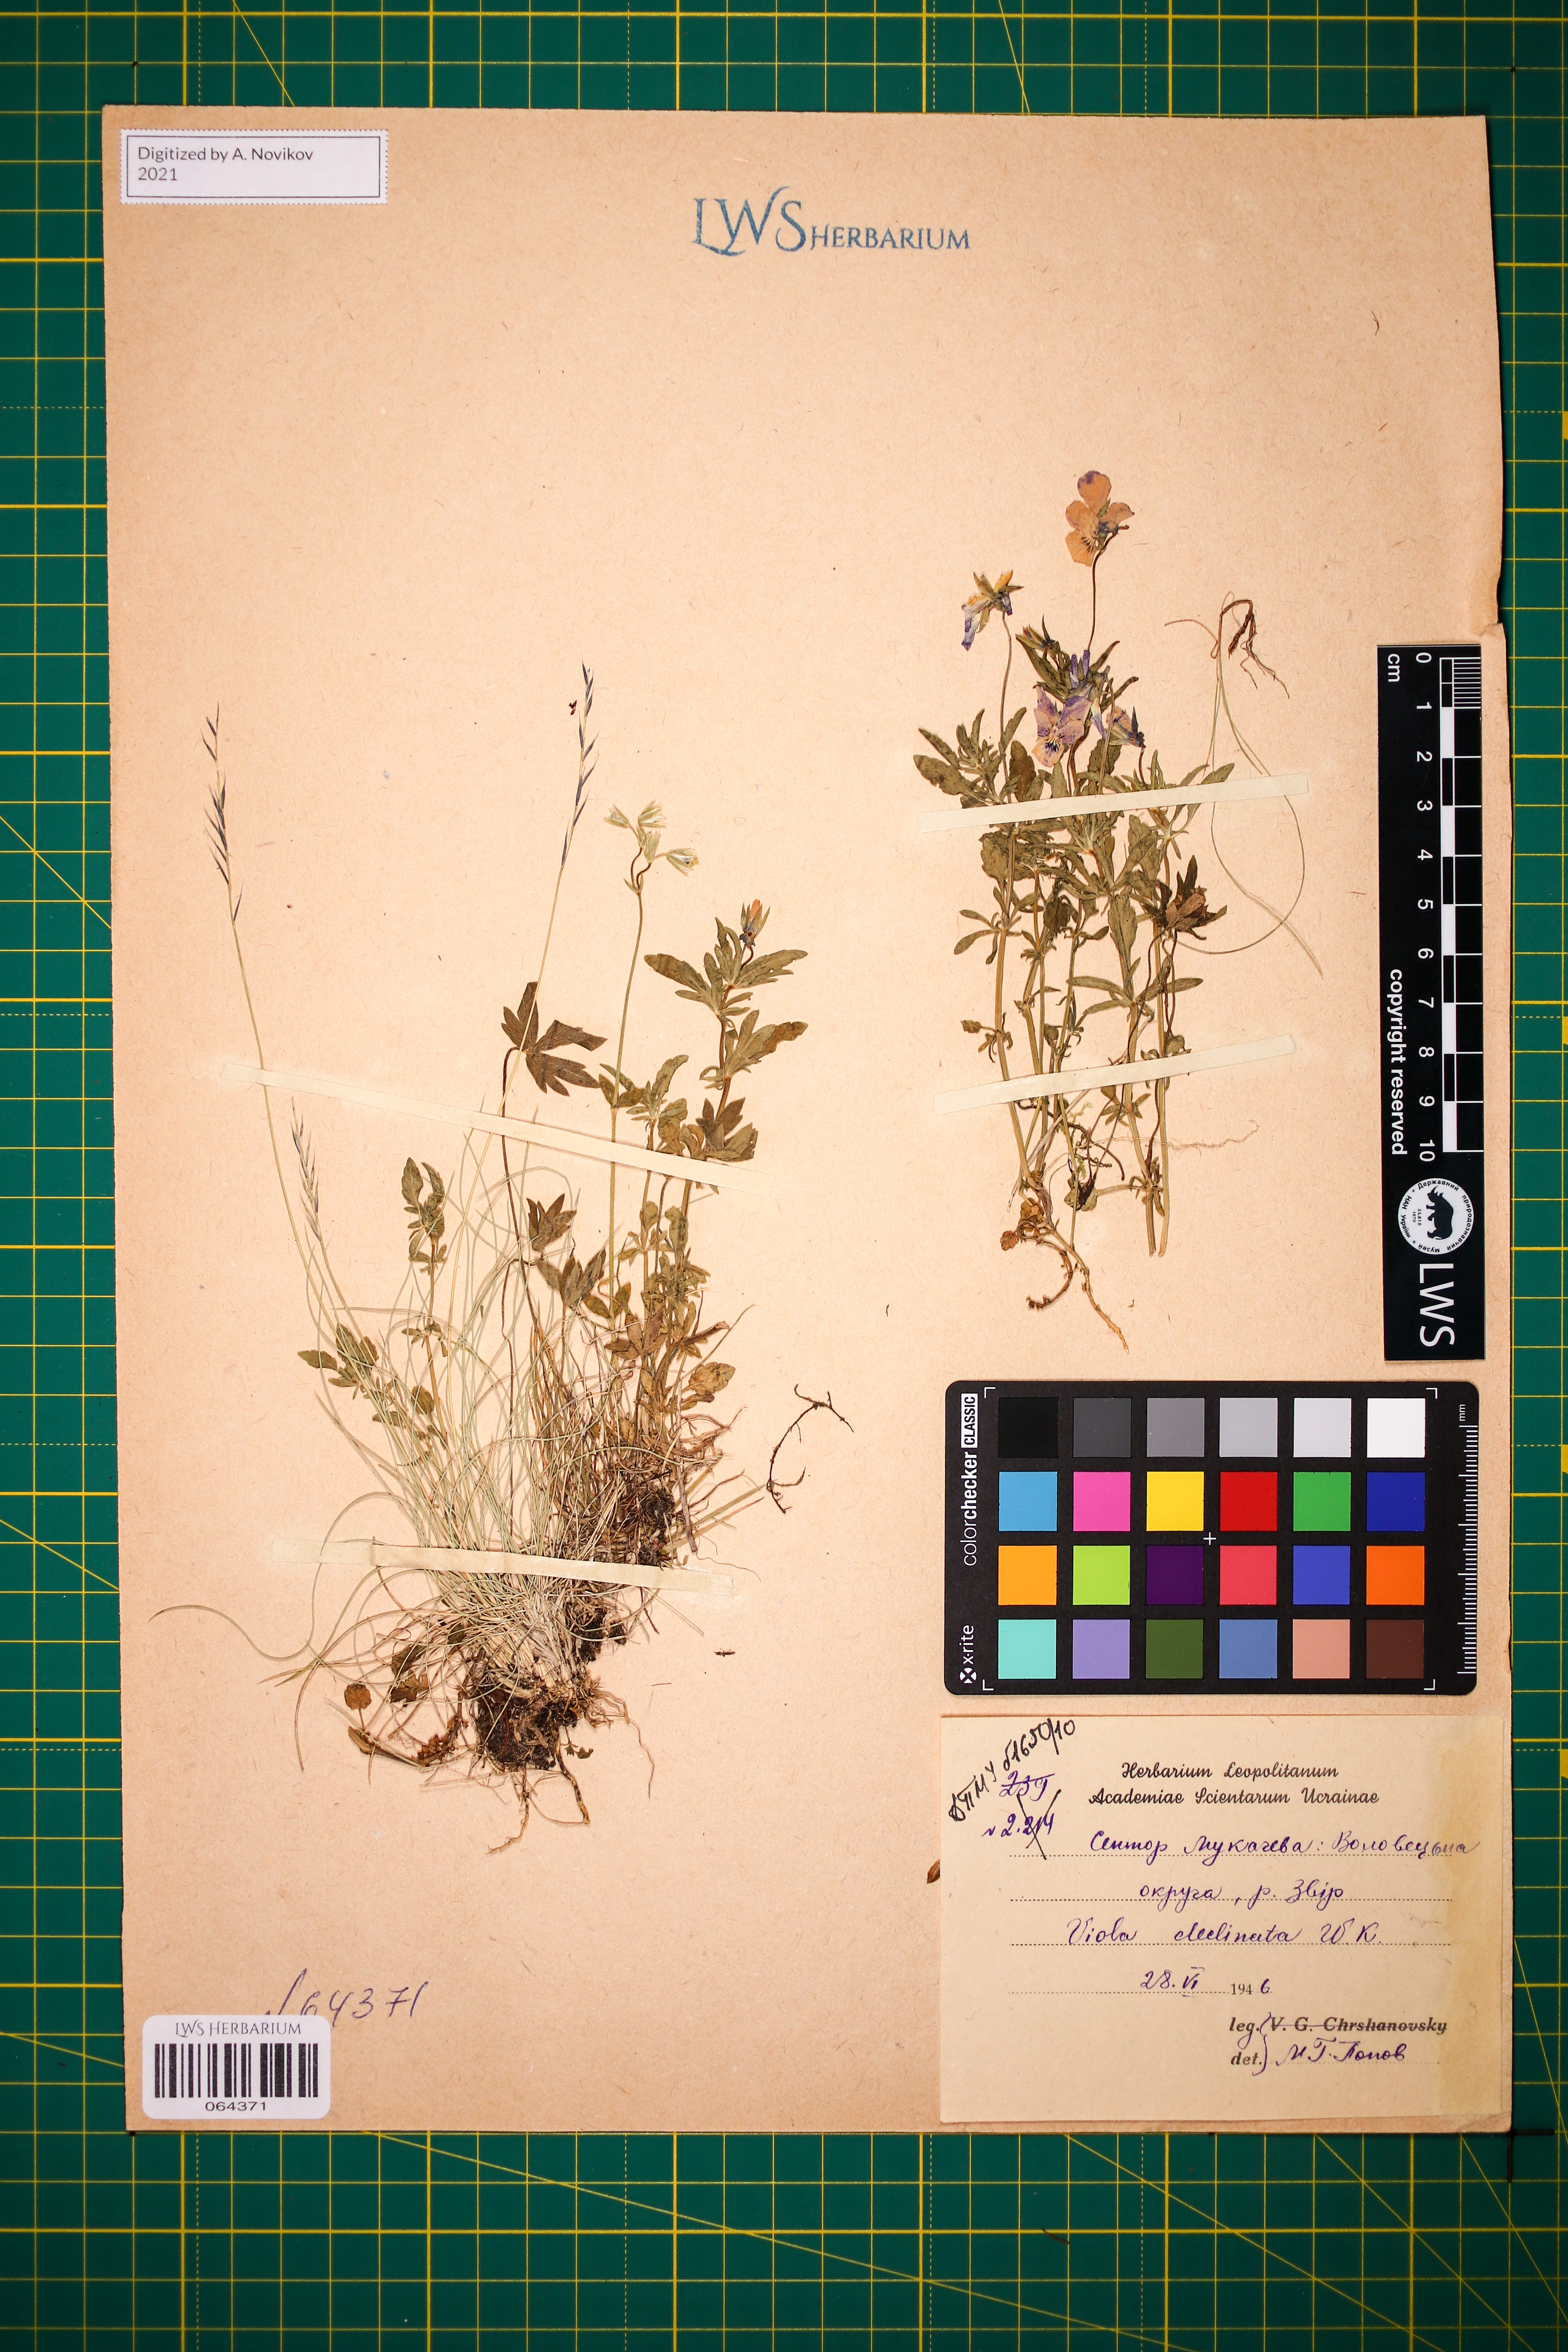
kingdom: Plantae
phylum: Tracheophyta
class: Magnoliopsida
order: Malpighiales
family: Violaceae
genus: Viola
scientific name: Viola declinata
